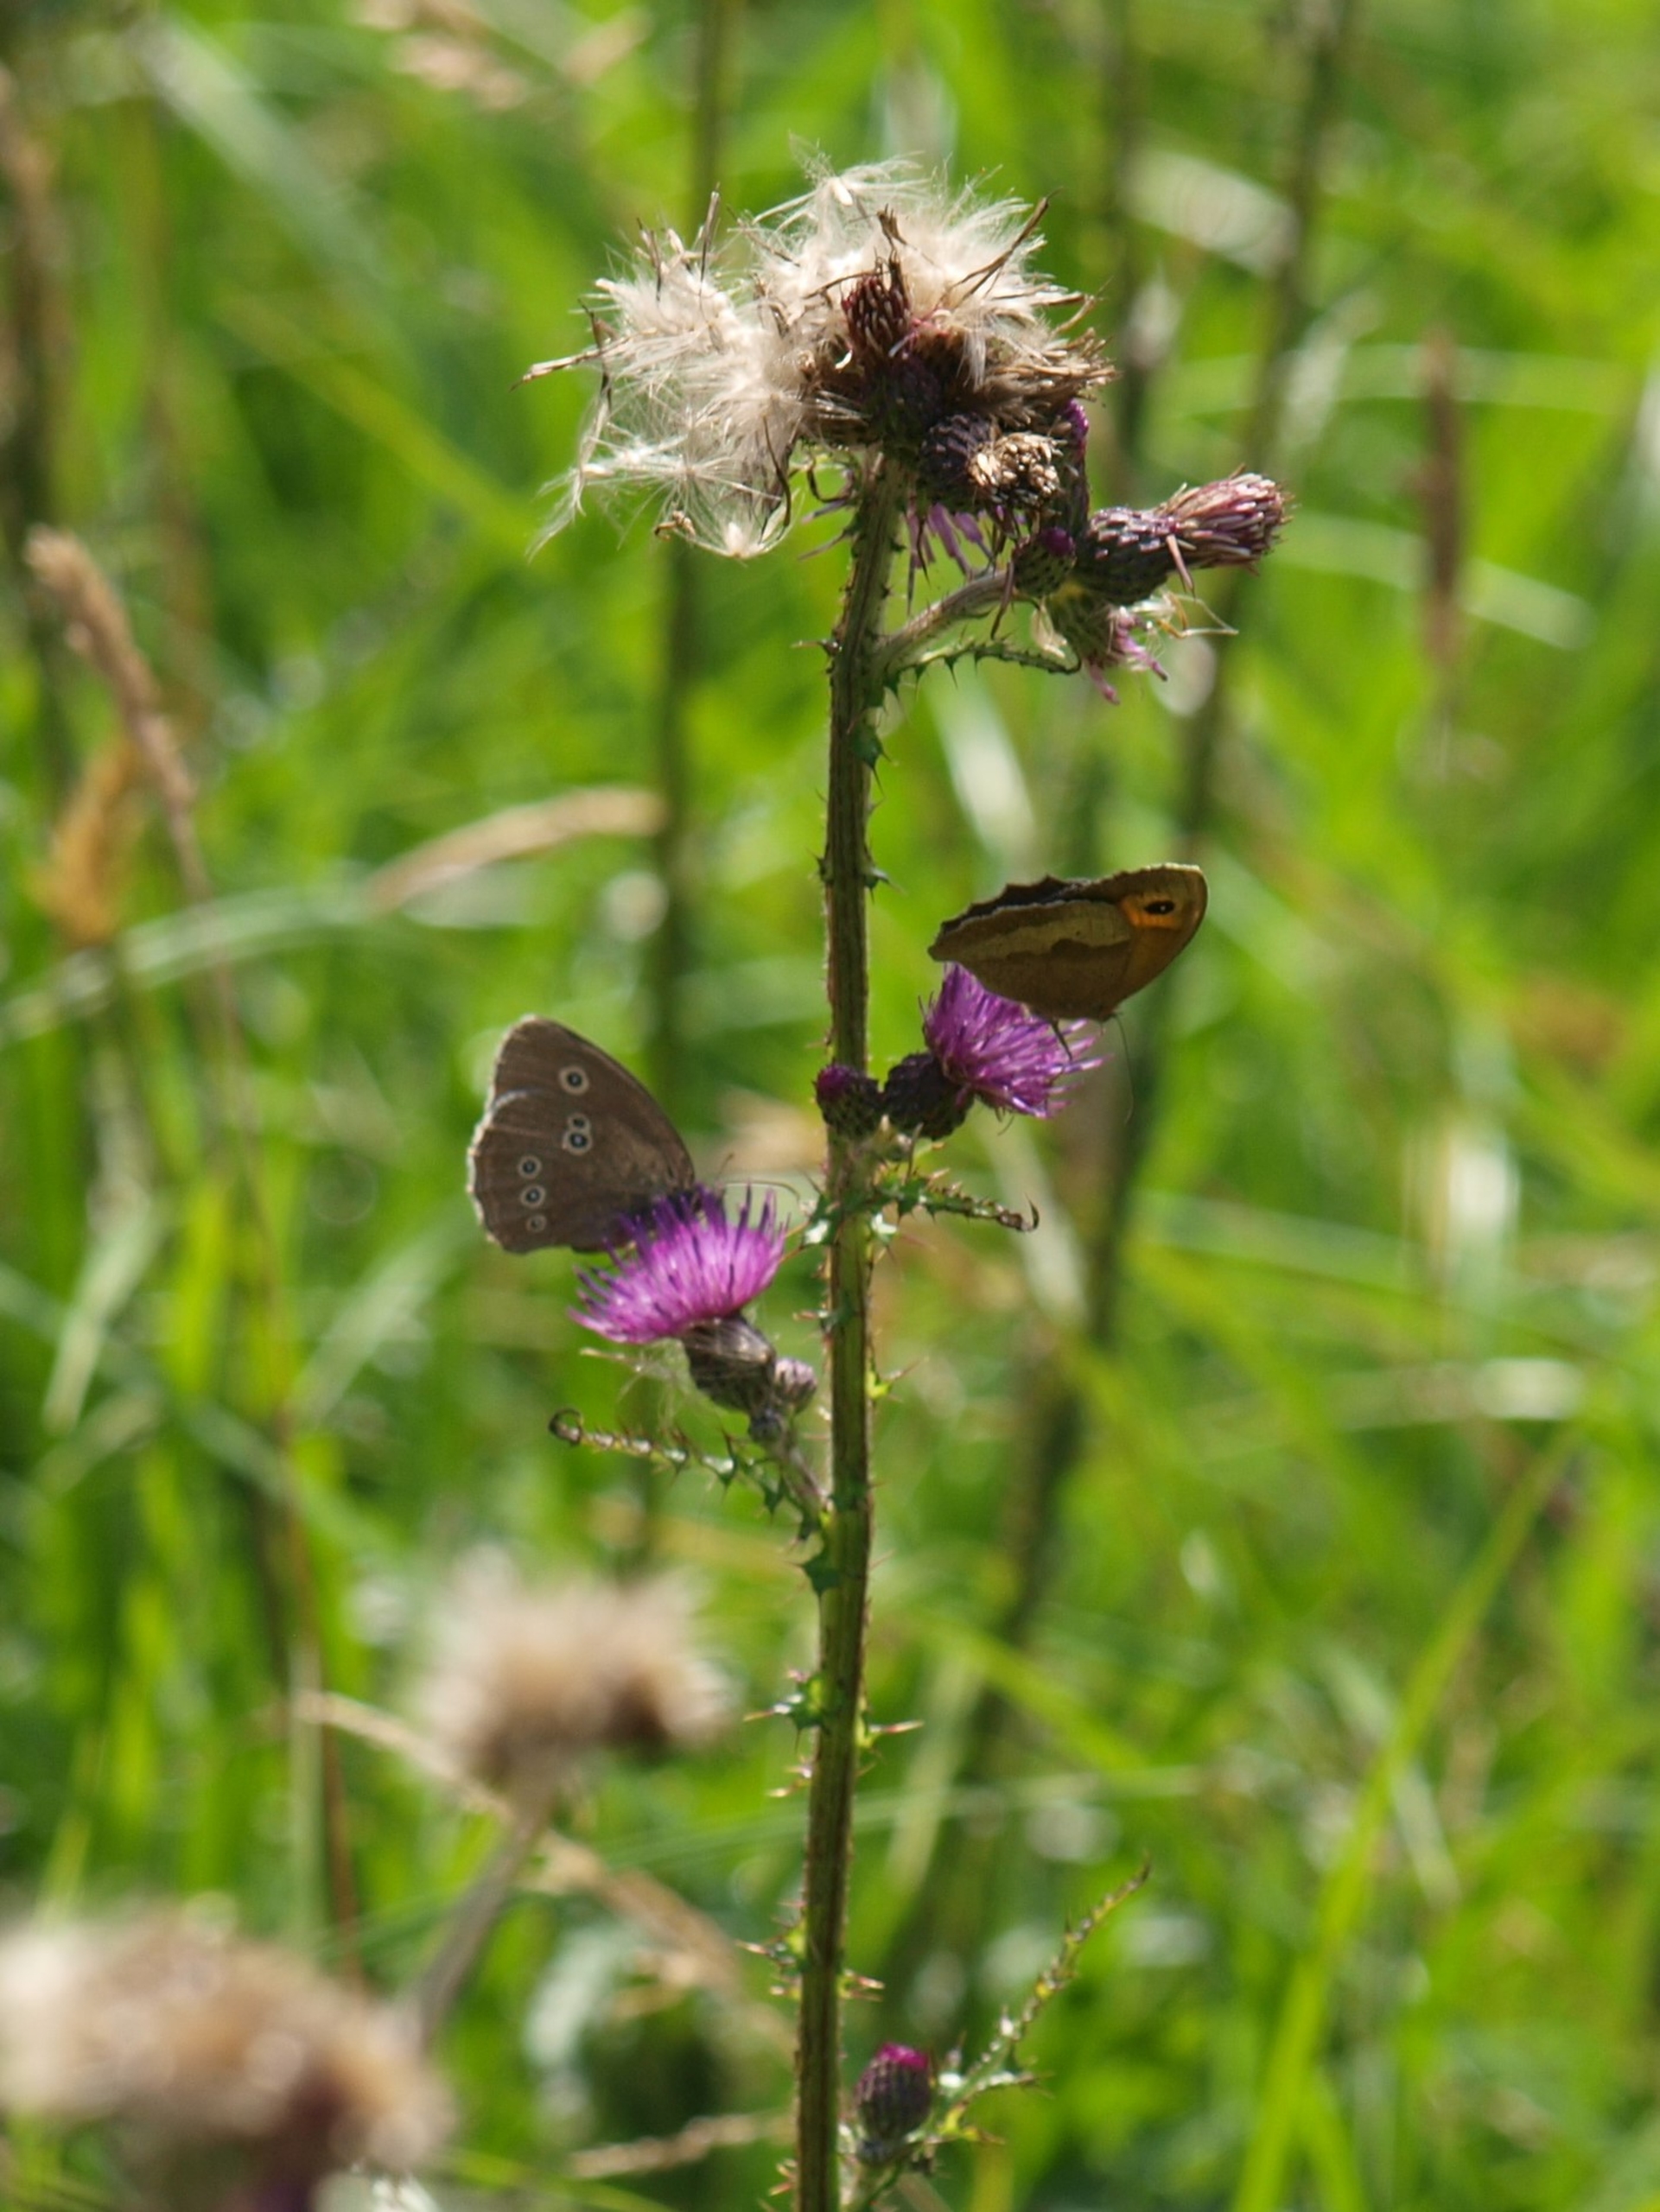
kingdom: Animalia
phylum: Arthropoda
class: Insecta
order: Lepidoptera
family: Nymphalidae
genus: Aphantopus
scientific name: Aphantopus hyperantus
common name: Engrandøje
